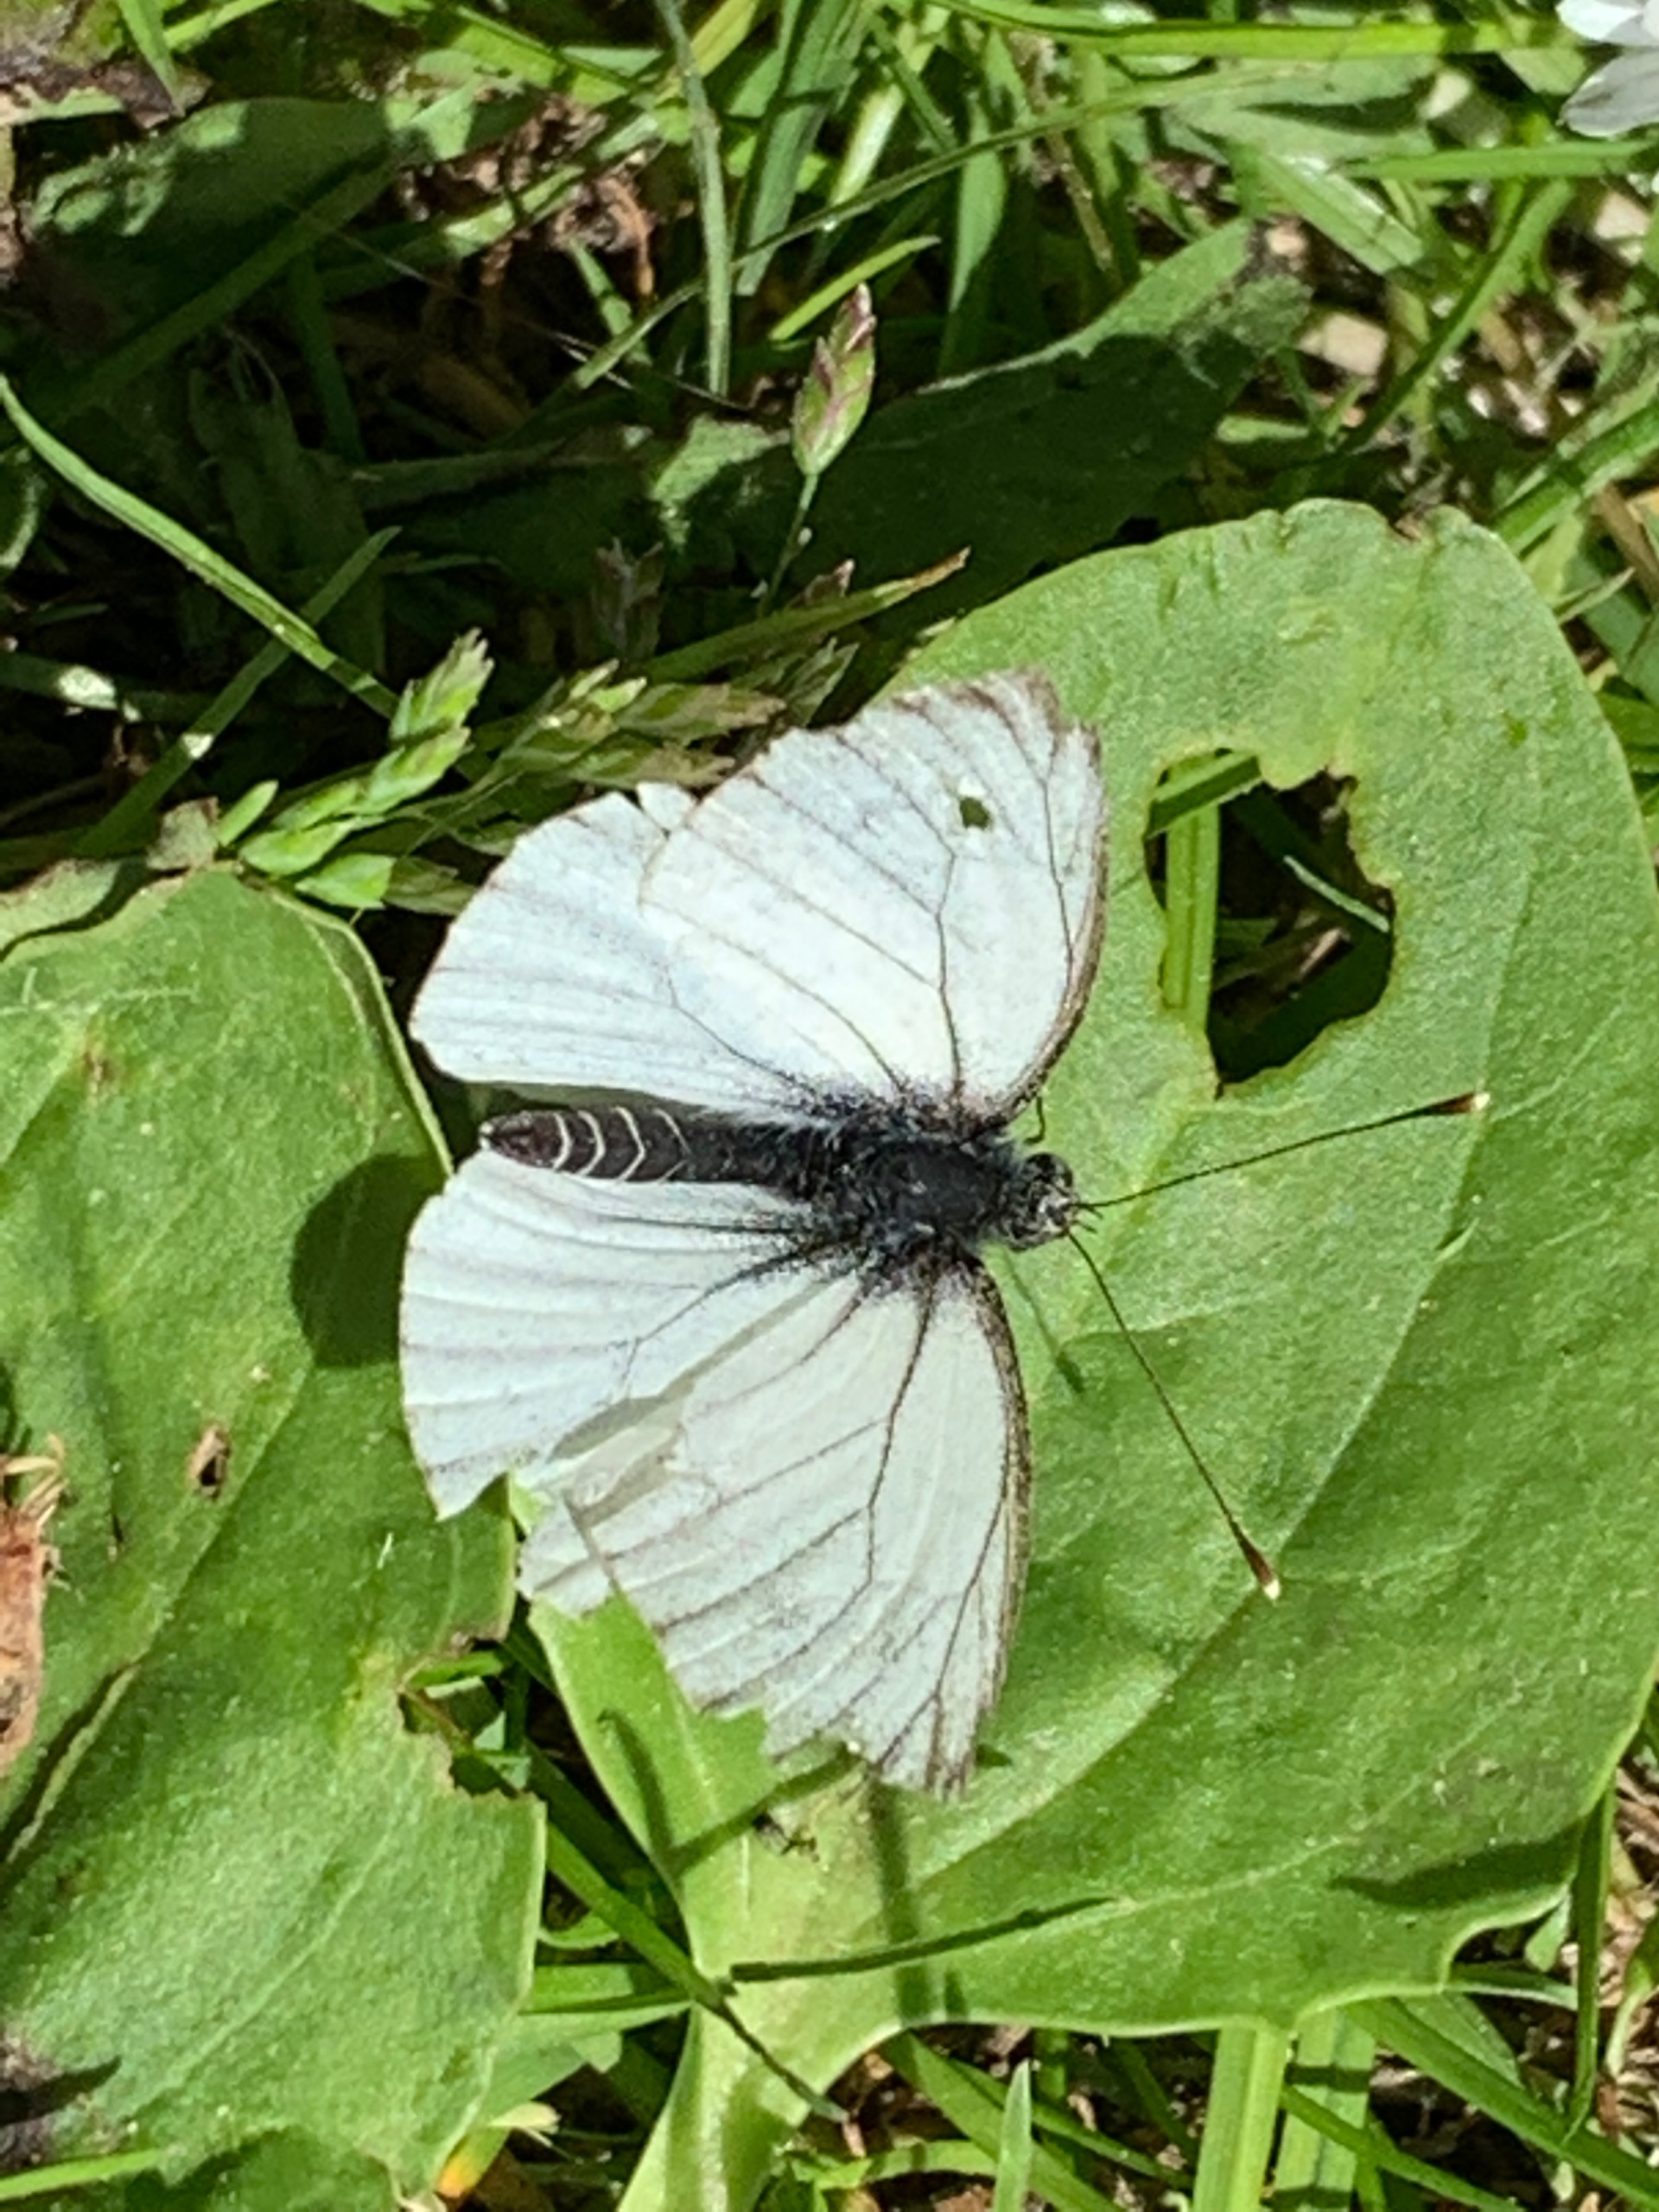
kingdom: Animalia
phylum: Arthropoda
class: Insecta
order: Lepidoptera
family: Pieridae
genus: Pieris
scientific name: Pieris napi
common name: Grønåret kålsommerfugl
